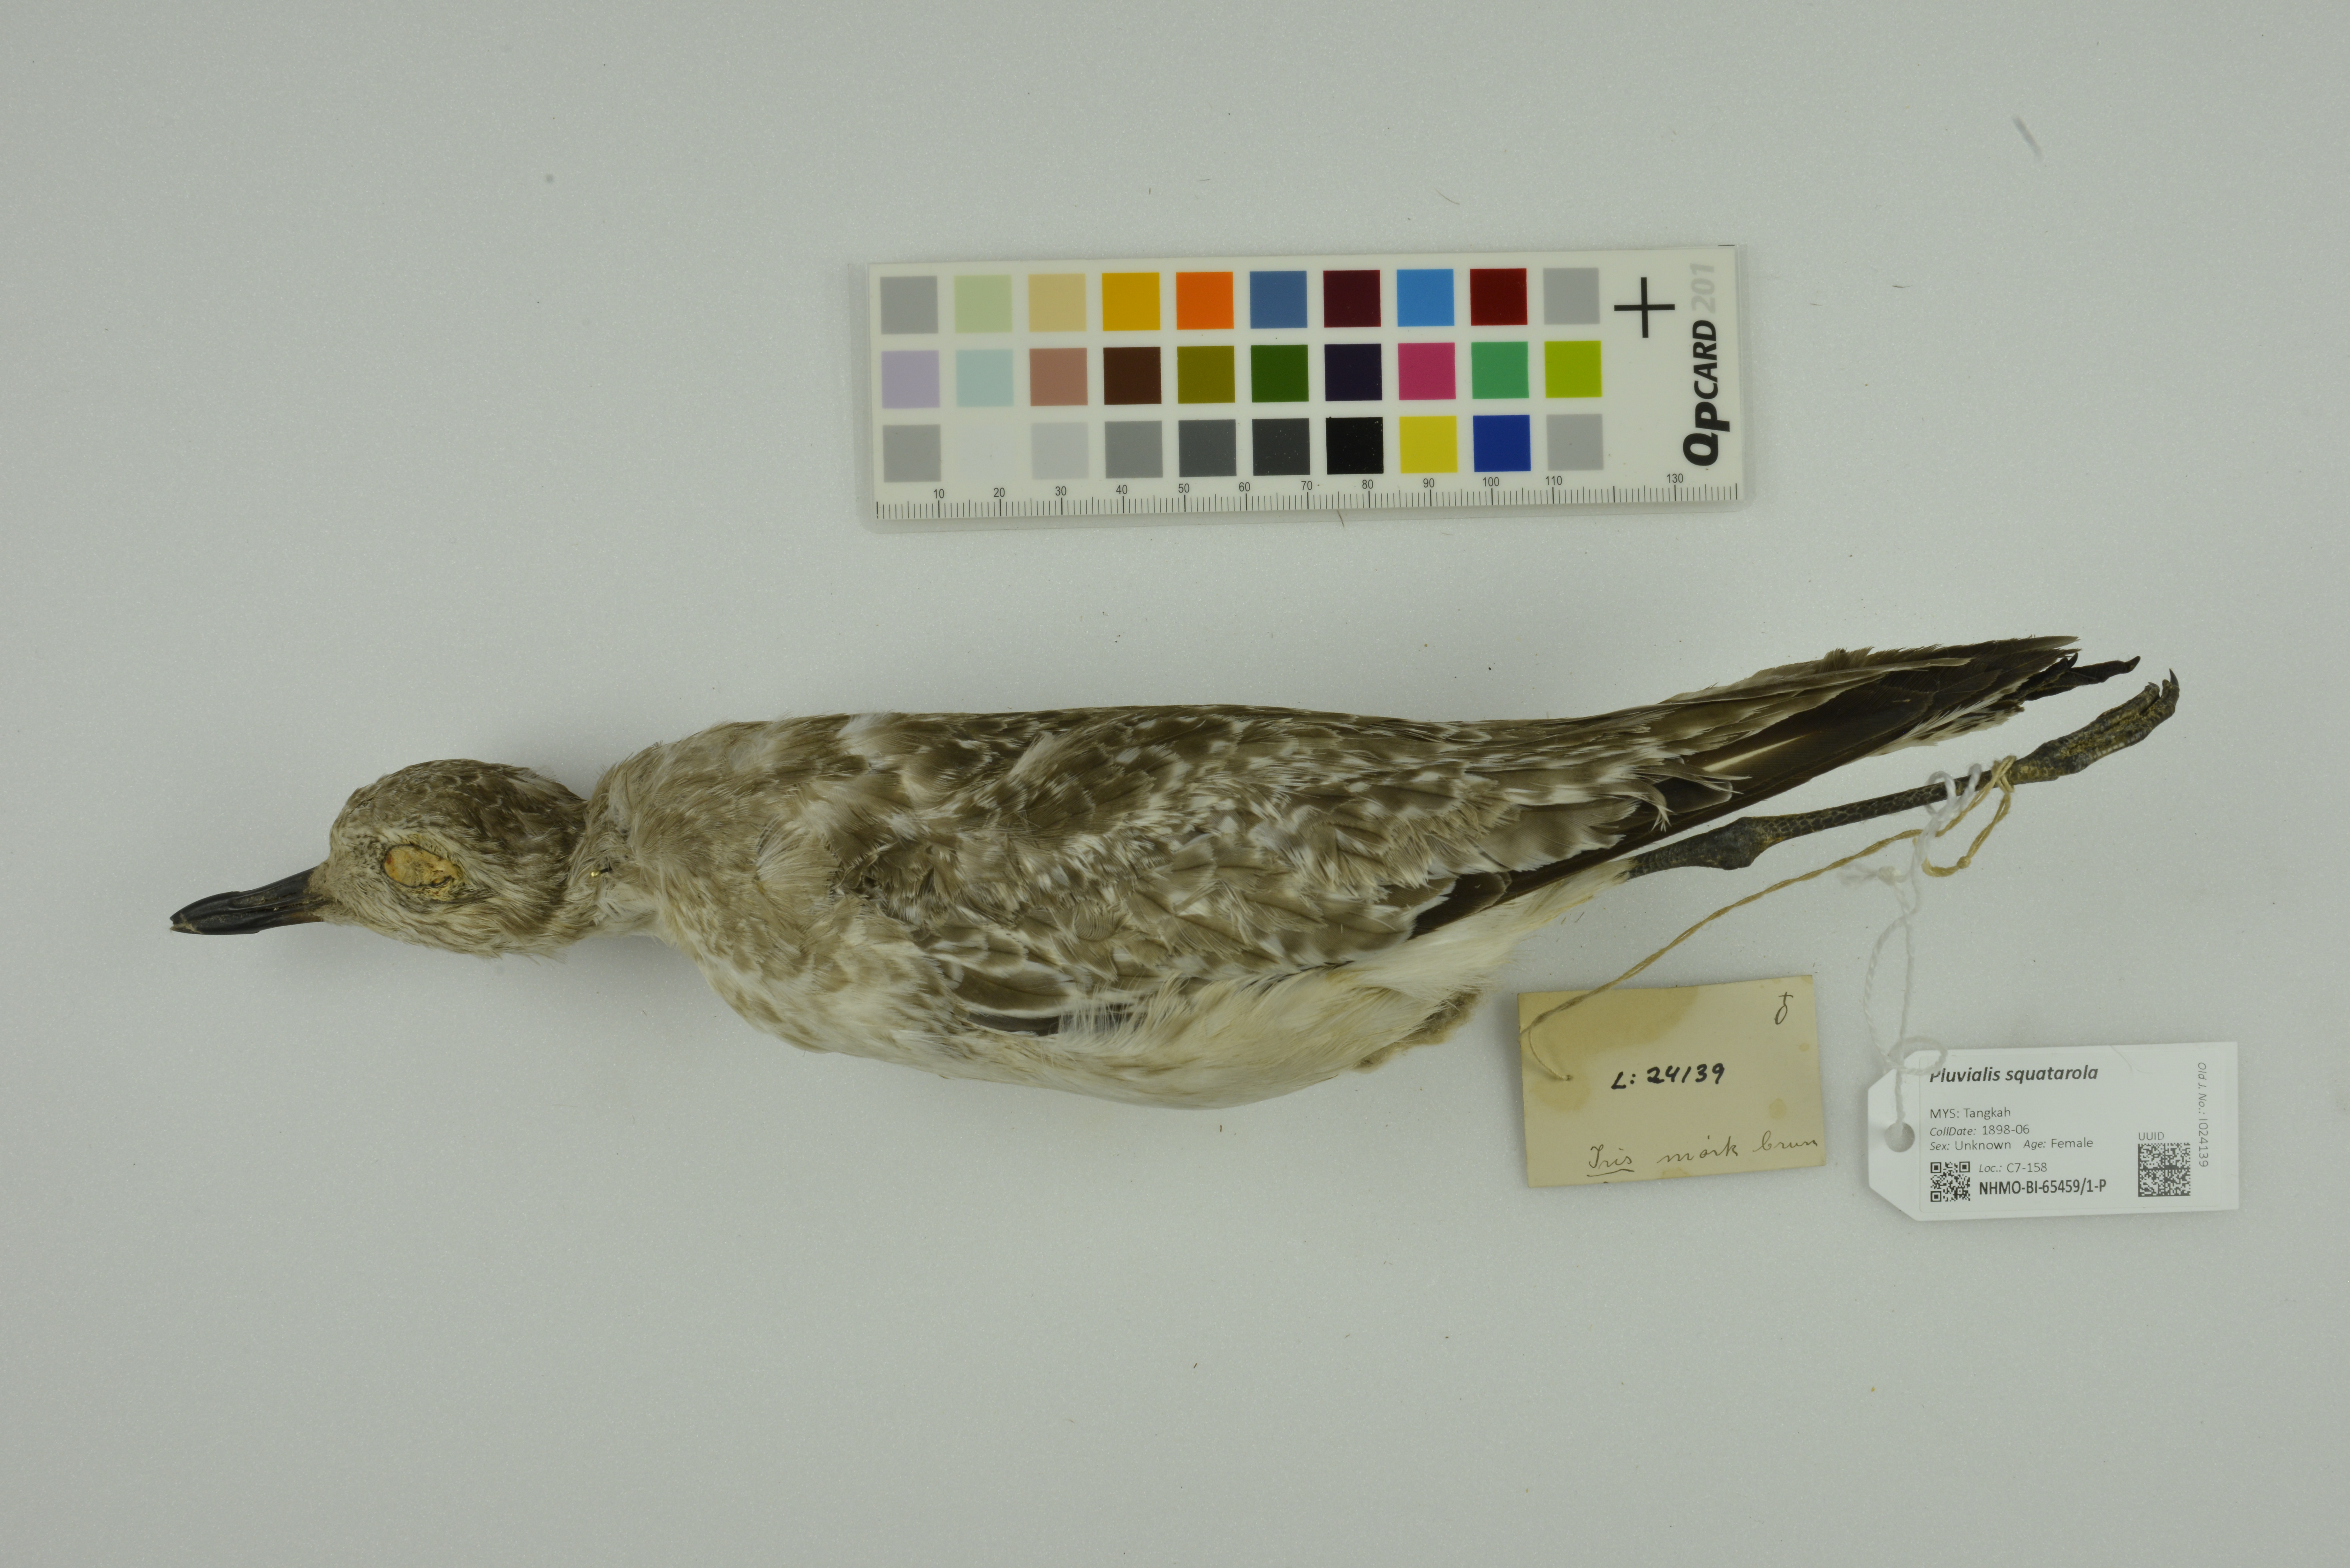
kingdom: Animalia
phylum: Chordata
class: Aves
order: Charadriiformes
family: Charadriidae
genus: Pluvialis
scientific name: Pluvialis squatarola
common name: Grey plover
